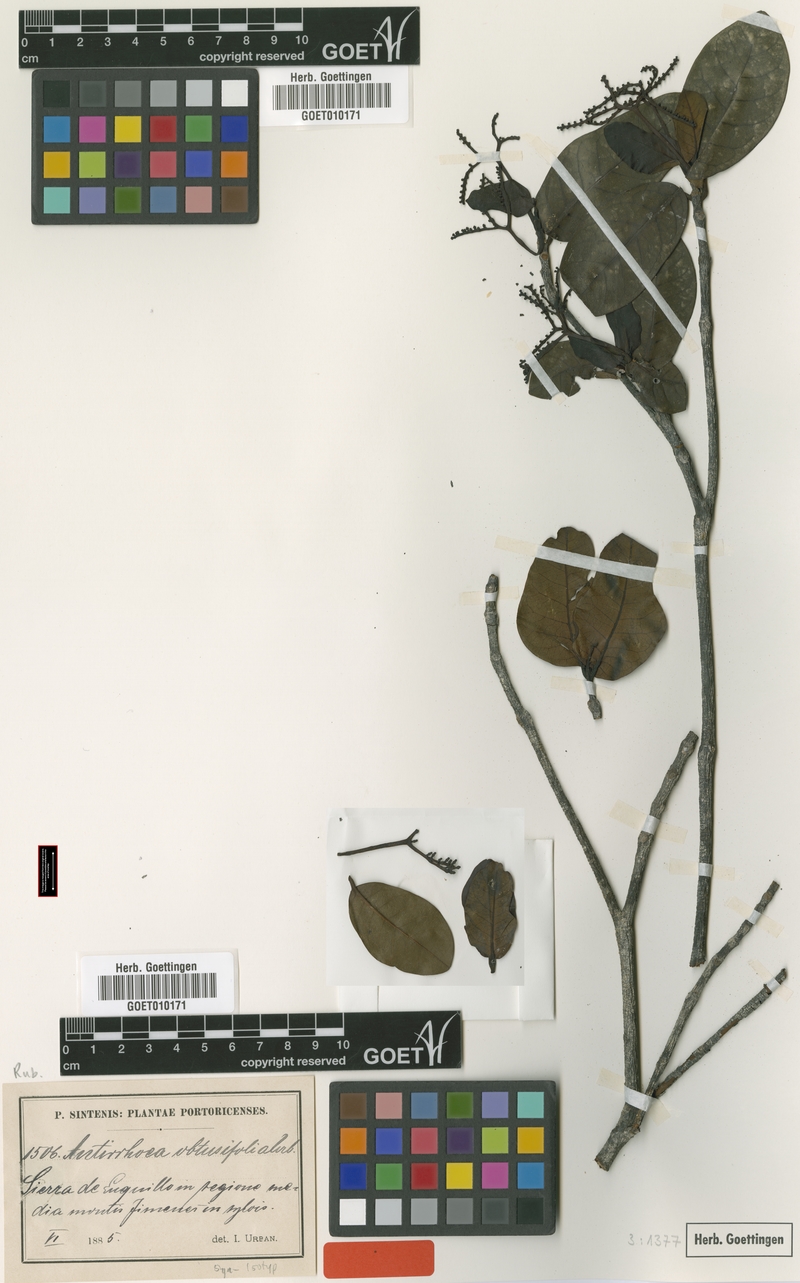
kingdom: Plantae
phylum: Tracheophyta
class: Magnoliopsida
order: Gentianales
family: Rubiaceae
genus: Stenostomum
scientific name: Stenostomum obtusifolium
